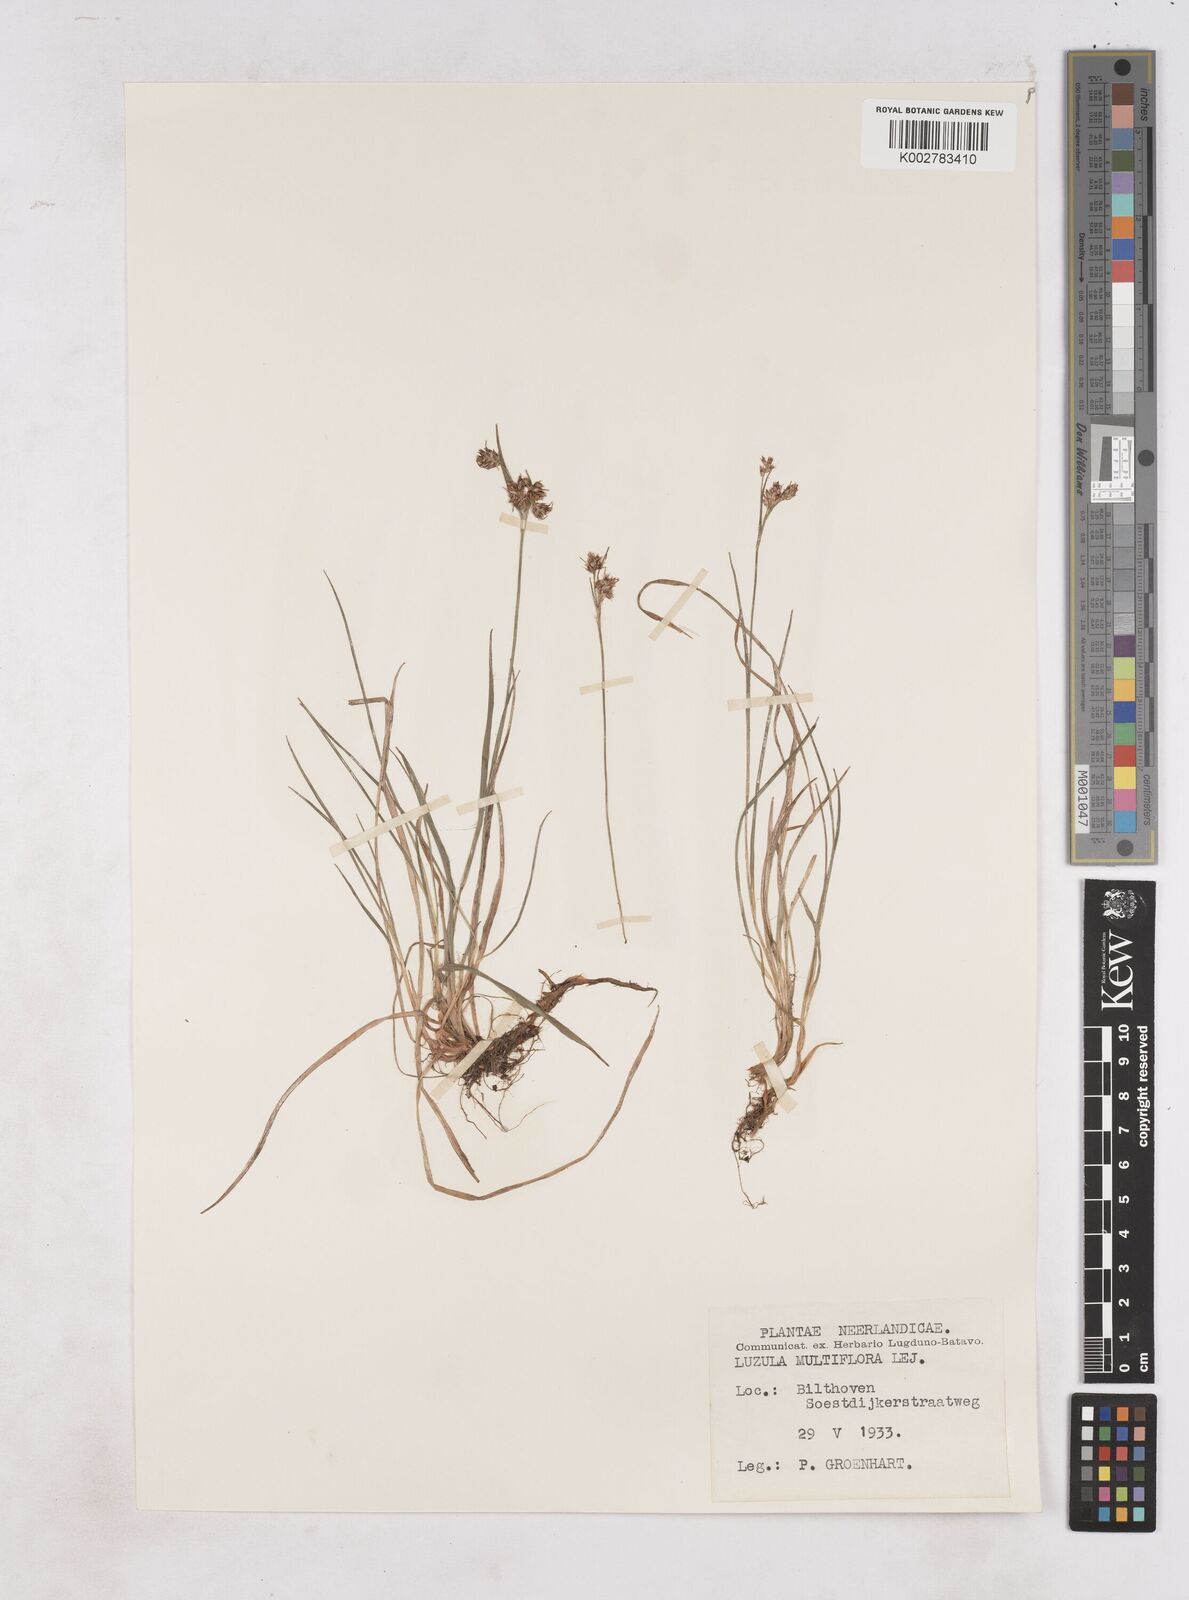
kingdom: Plantae
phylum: Tracheophyta
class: Liliopsida
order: Poales
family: Juncaceae
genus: Luzula
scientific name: Luzula multiflora
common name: Heath wood-rush
